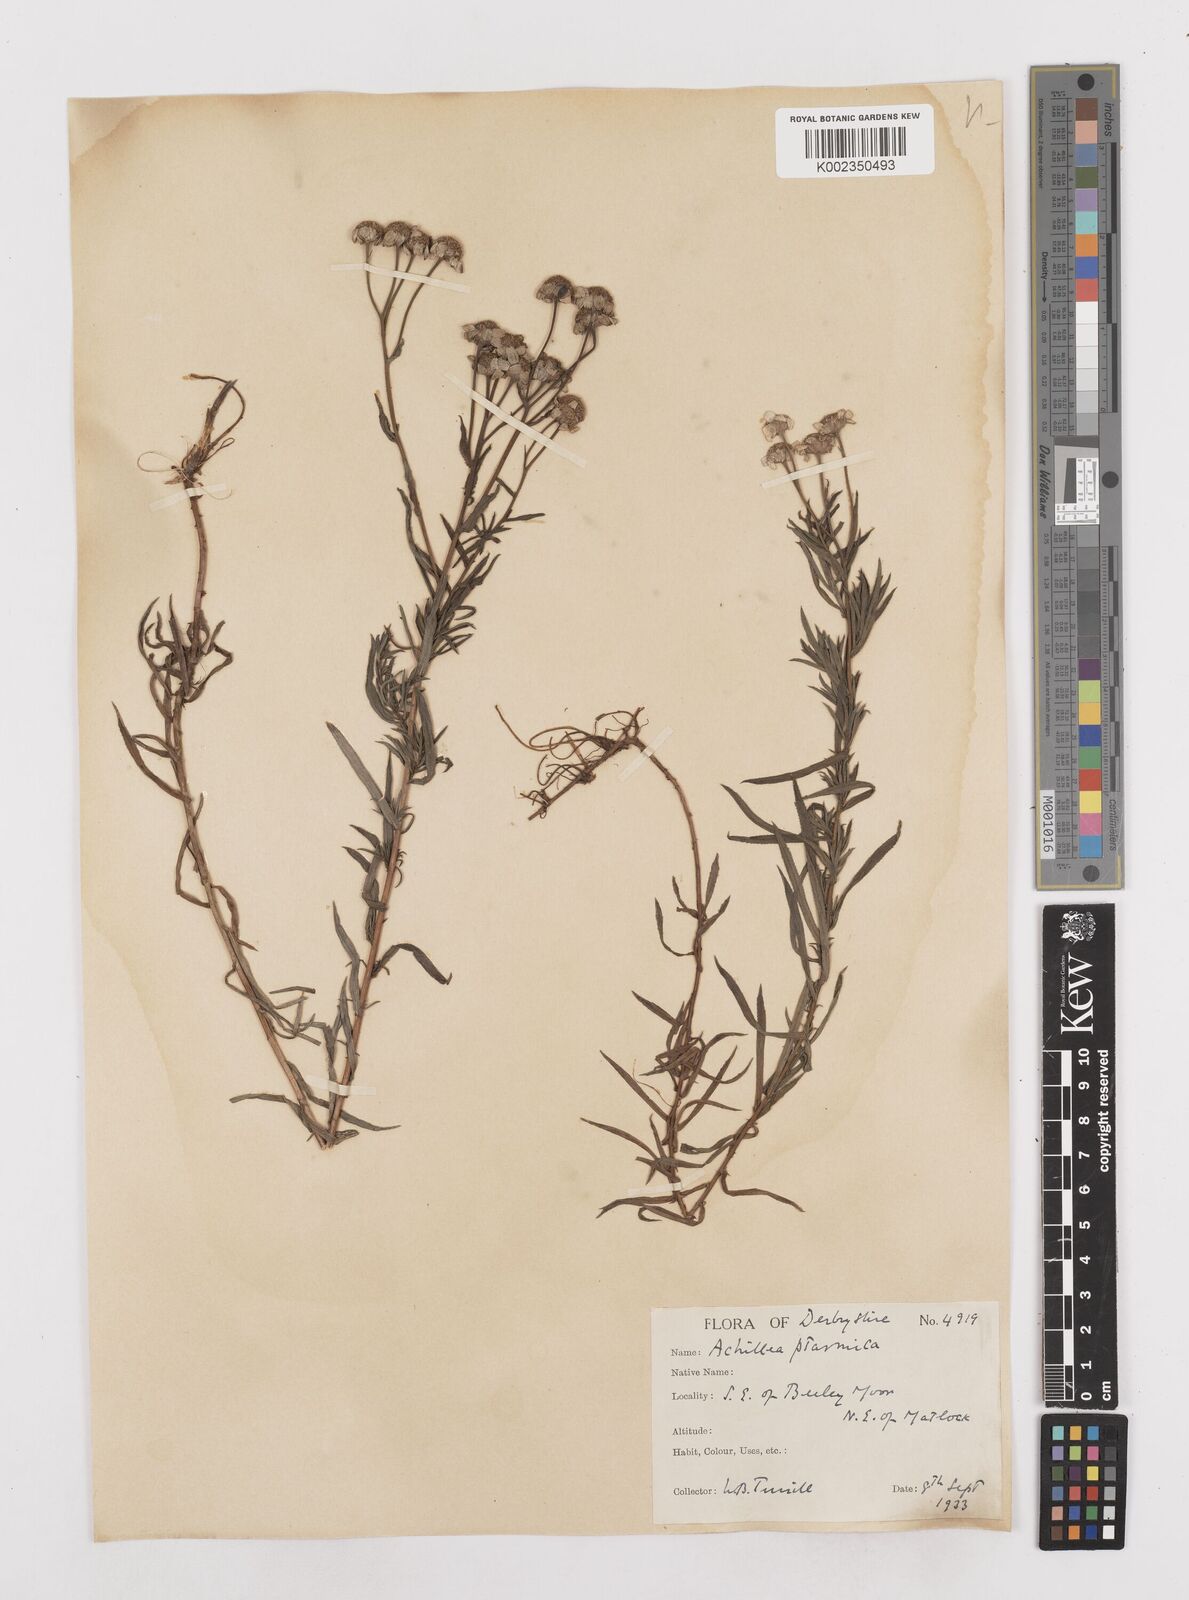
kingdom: Plantae
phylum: Tracheophyta
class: Magnoliopsida
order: Asterales
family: Asteraceae
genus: Achillea
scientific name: Achillea ptarmica
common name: Sneezeweed
